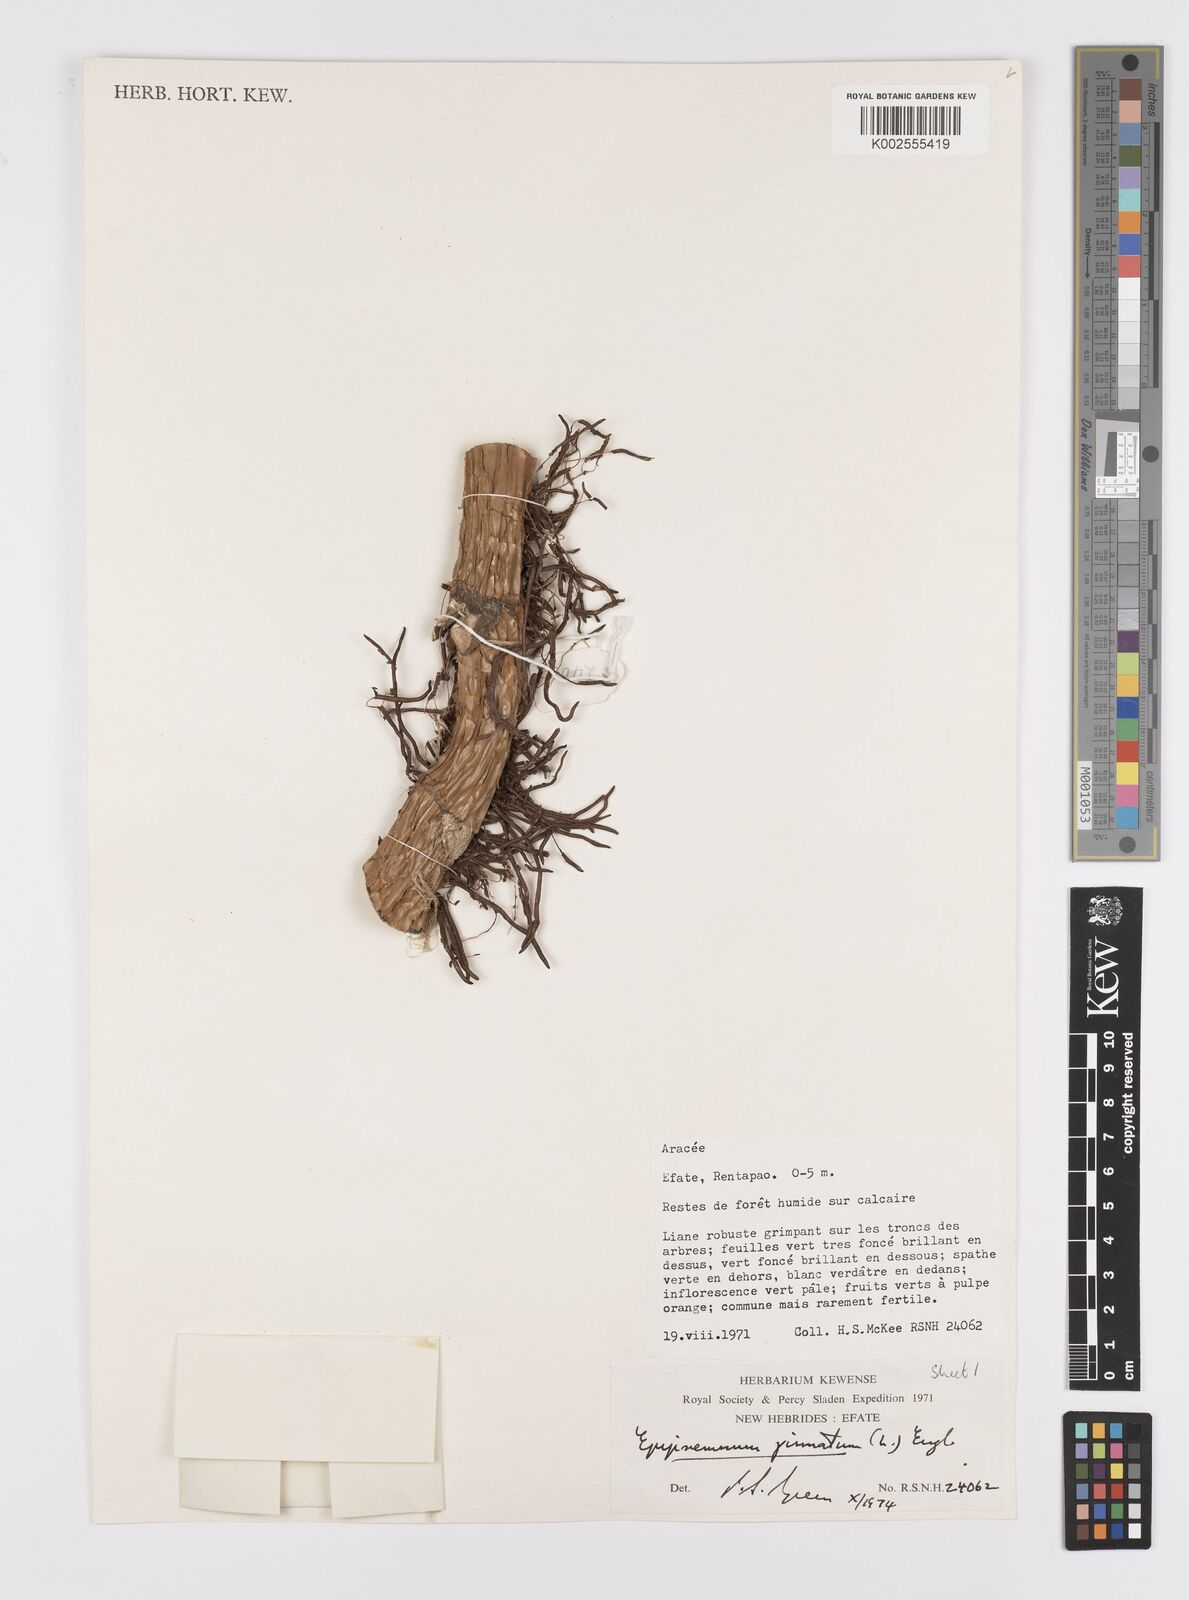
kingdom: Plantae
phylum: Tracheophyta
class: Liliopsida
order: Alismatales
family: Araceae
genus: Epipremnum
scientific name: Epipremnum pinnatum
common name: Centipede tongavine
